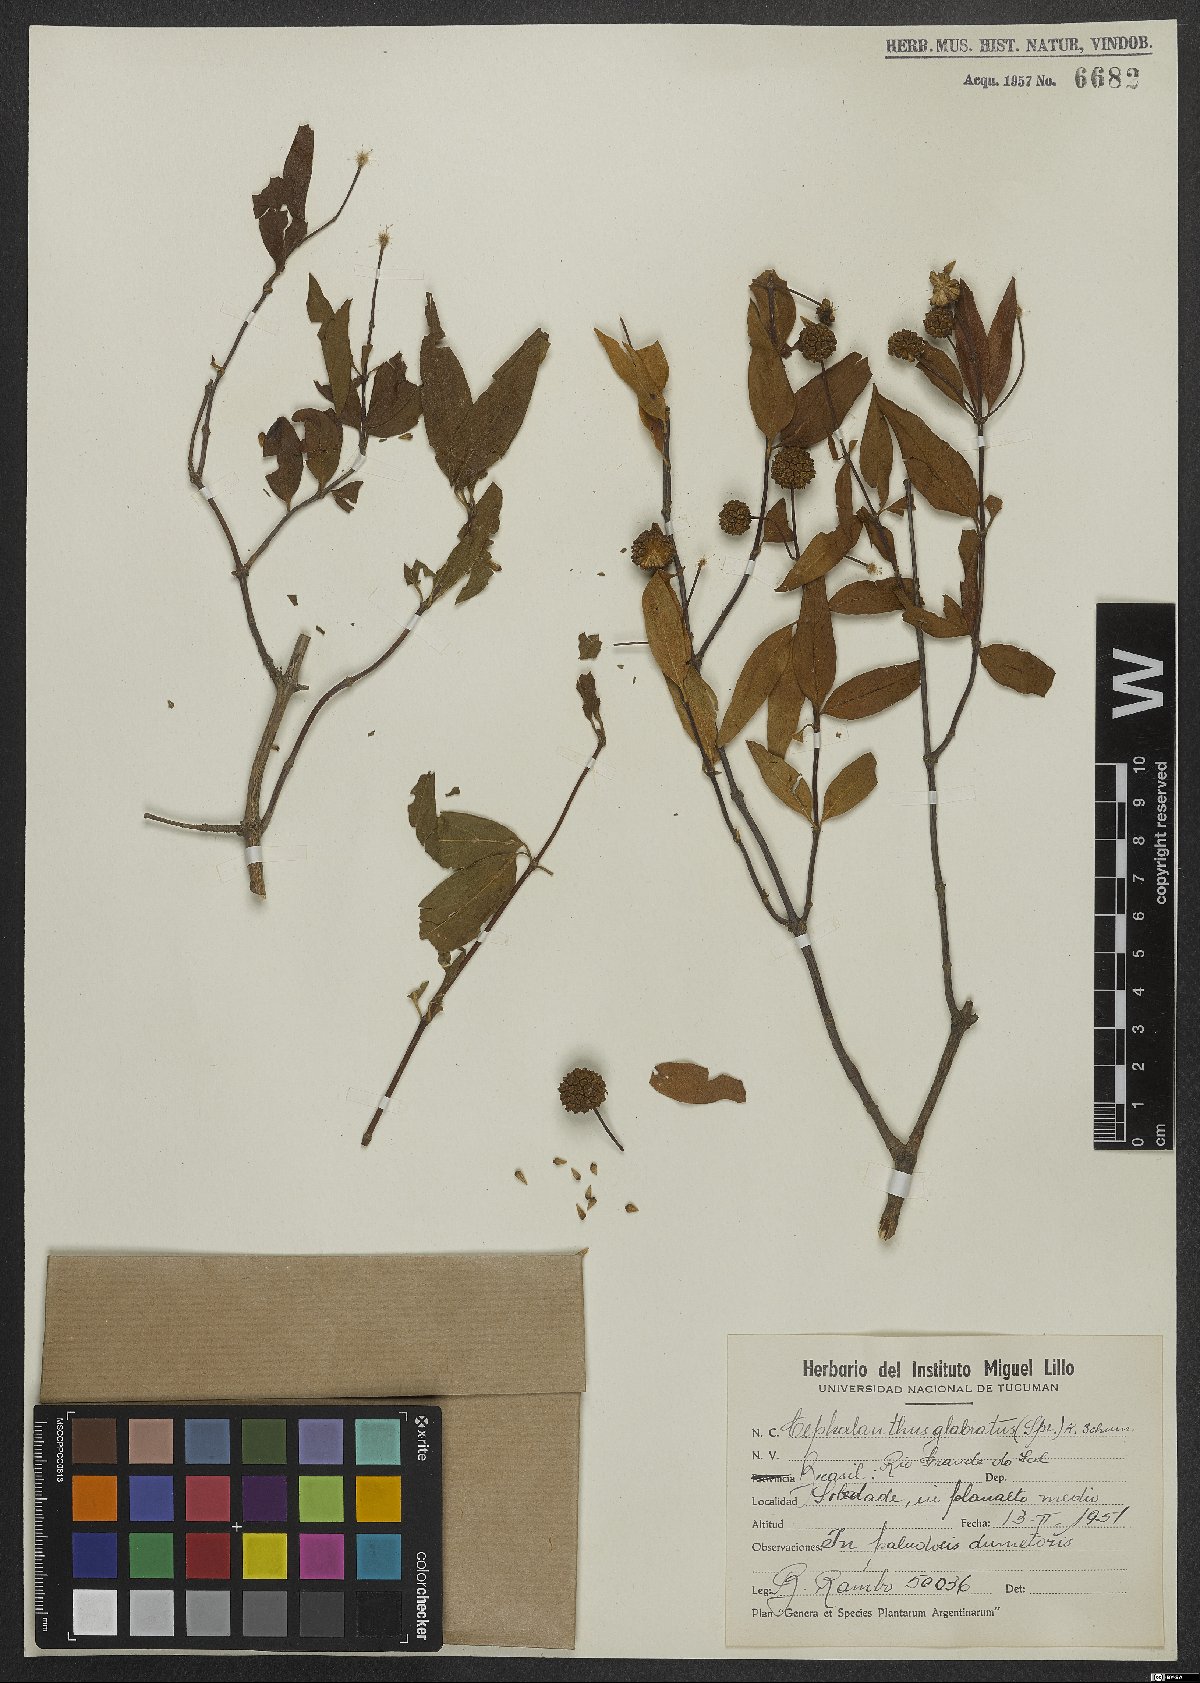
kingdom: Plantae
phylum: Tracheophyta
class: Magnoliopsida
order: Gentianales
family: Rubiaceae
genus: Cephalanthus
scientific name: Cephalanthus glabratus
